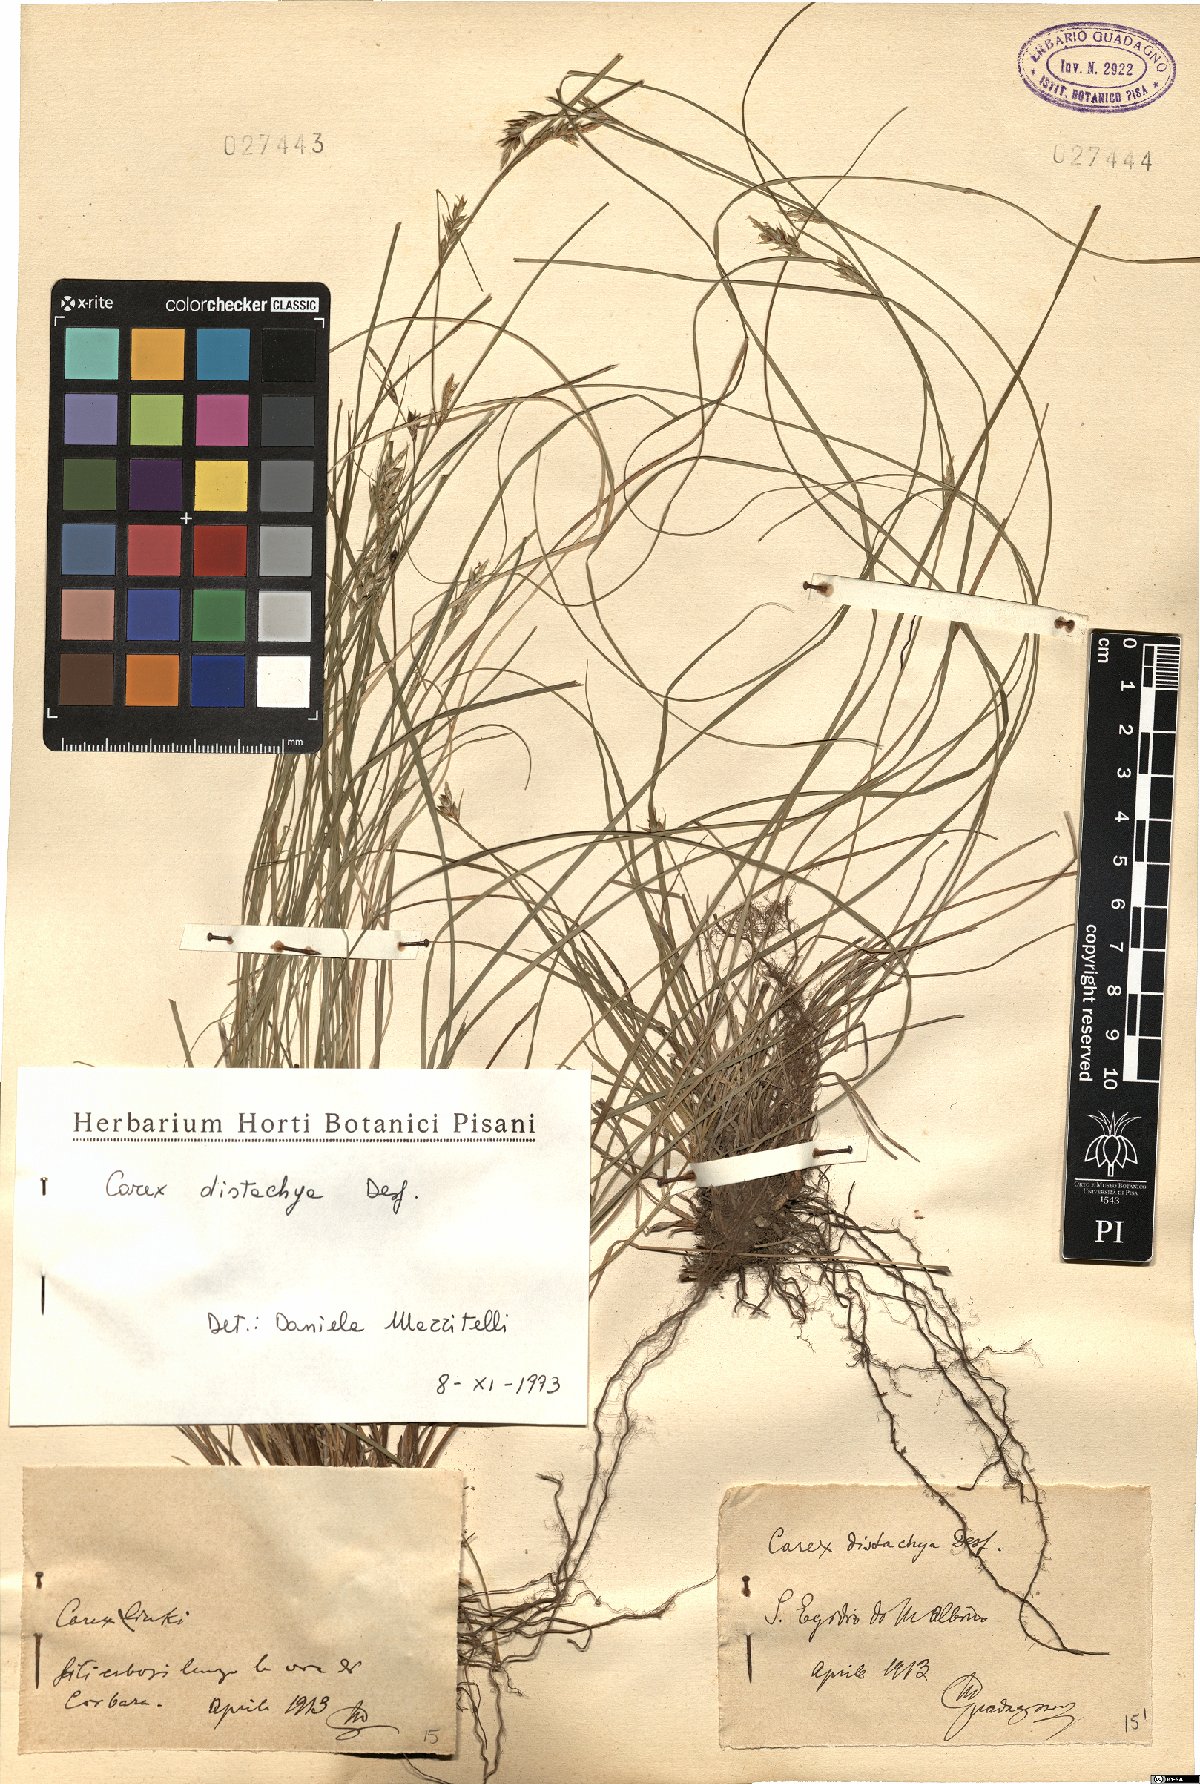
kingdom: Plantae
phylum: Tracheophyta
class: Liliopsida
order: Poales
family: Cyperaceae
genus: Carex
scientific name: Carex distachya
